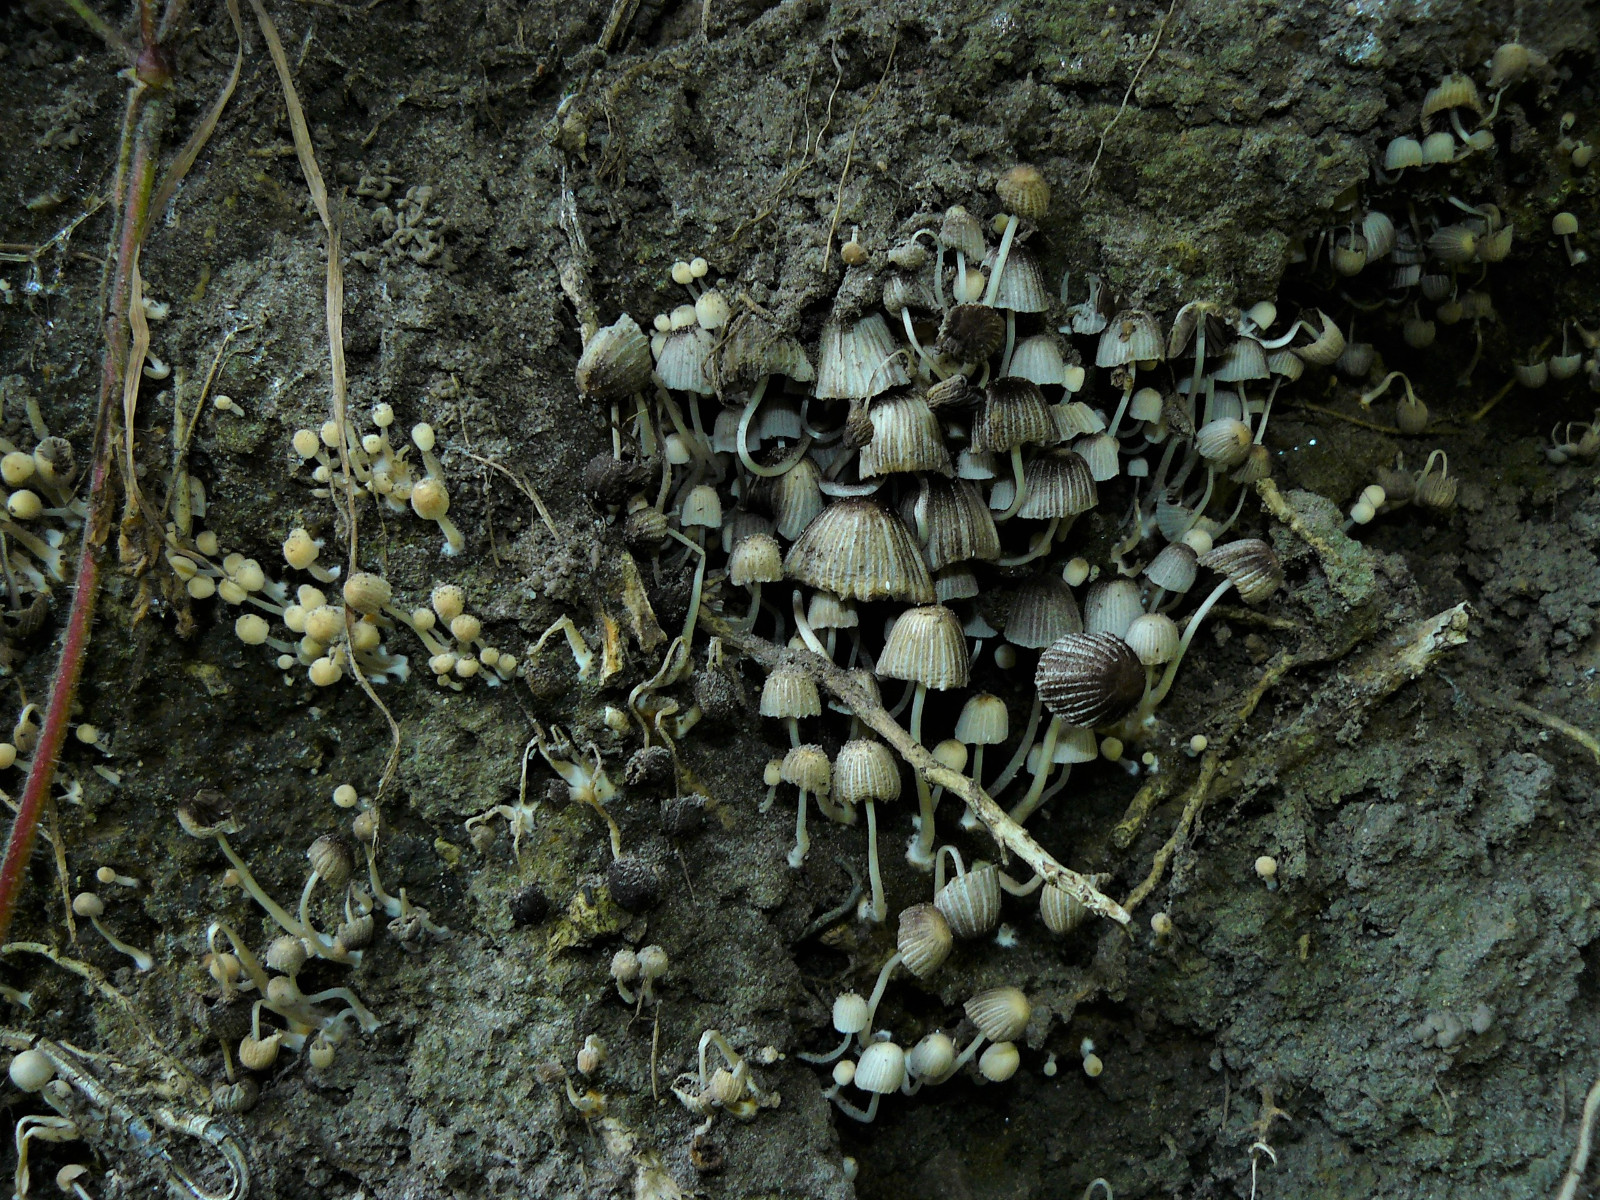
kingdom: Fungi
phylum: Basidiomycota
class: Agaricomycetes
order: Agaricales
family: Psathyrellaceae
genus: Coprinellus
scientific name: Coprinellus disseminatus
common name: bredsået blækhat
